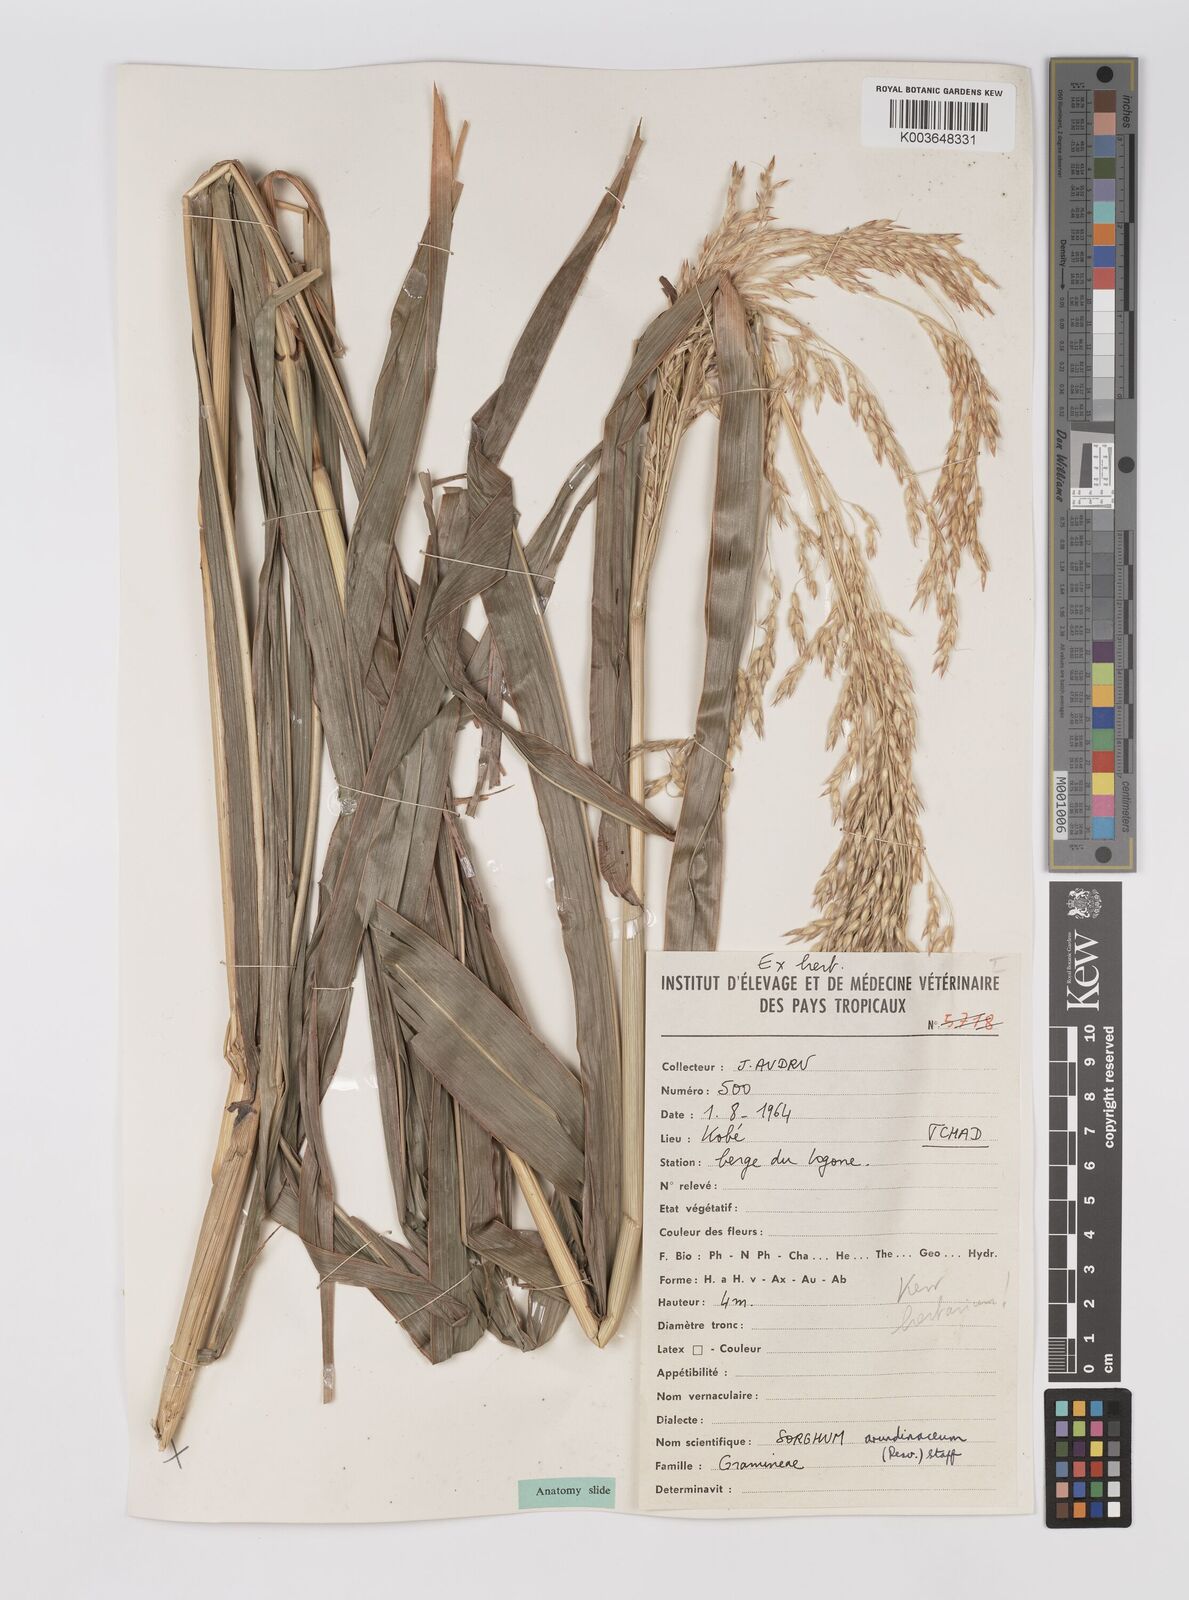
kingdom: Plantae
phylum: Tracheophyta
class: Liliopsida
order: Poales
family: Poaceae
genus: Sorghum
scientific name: Sorghum arundinaceum
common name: Sorghum
